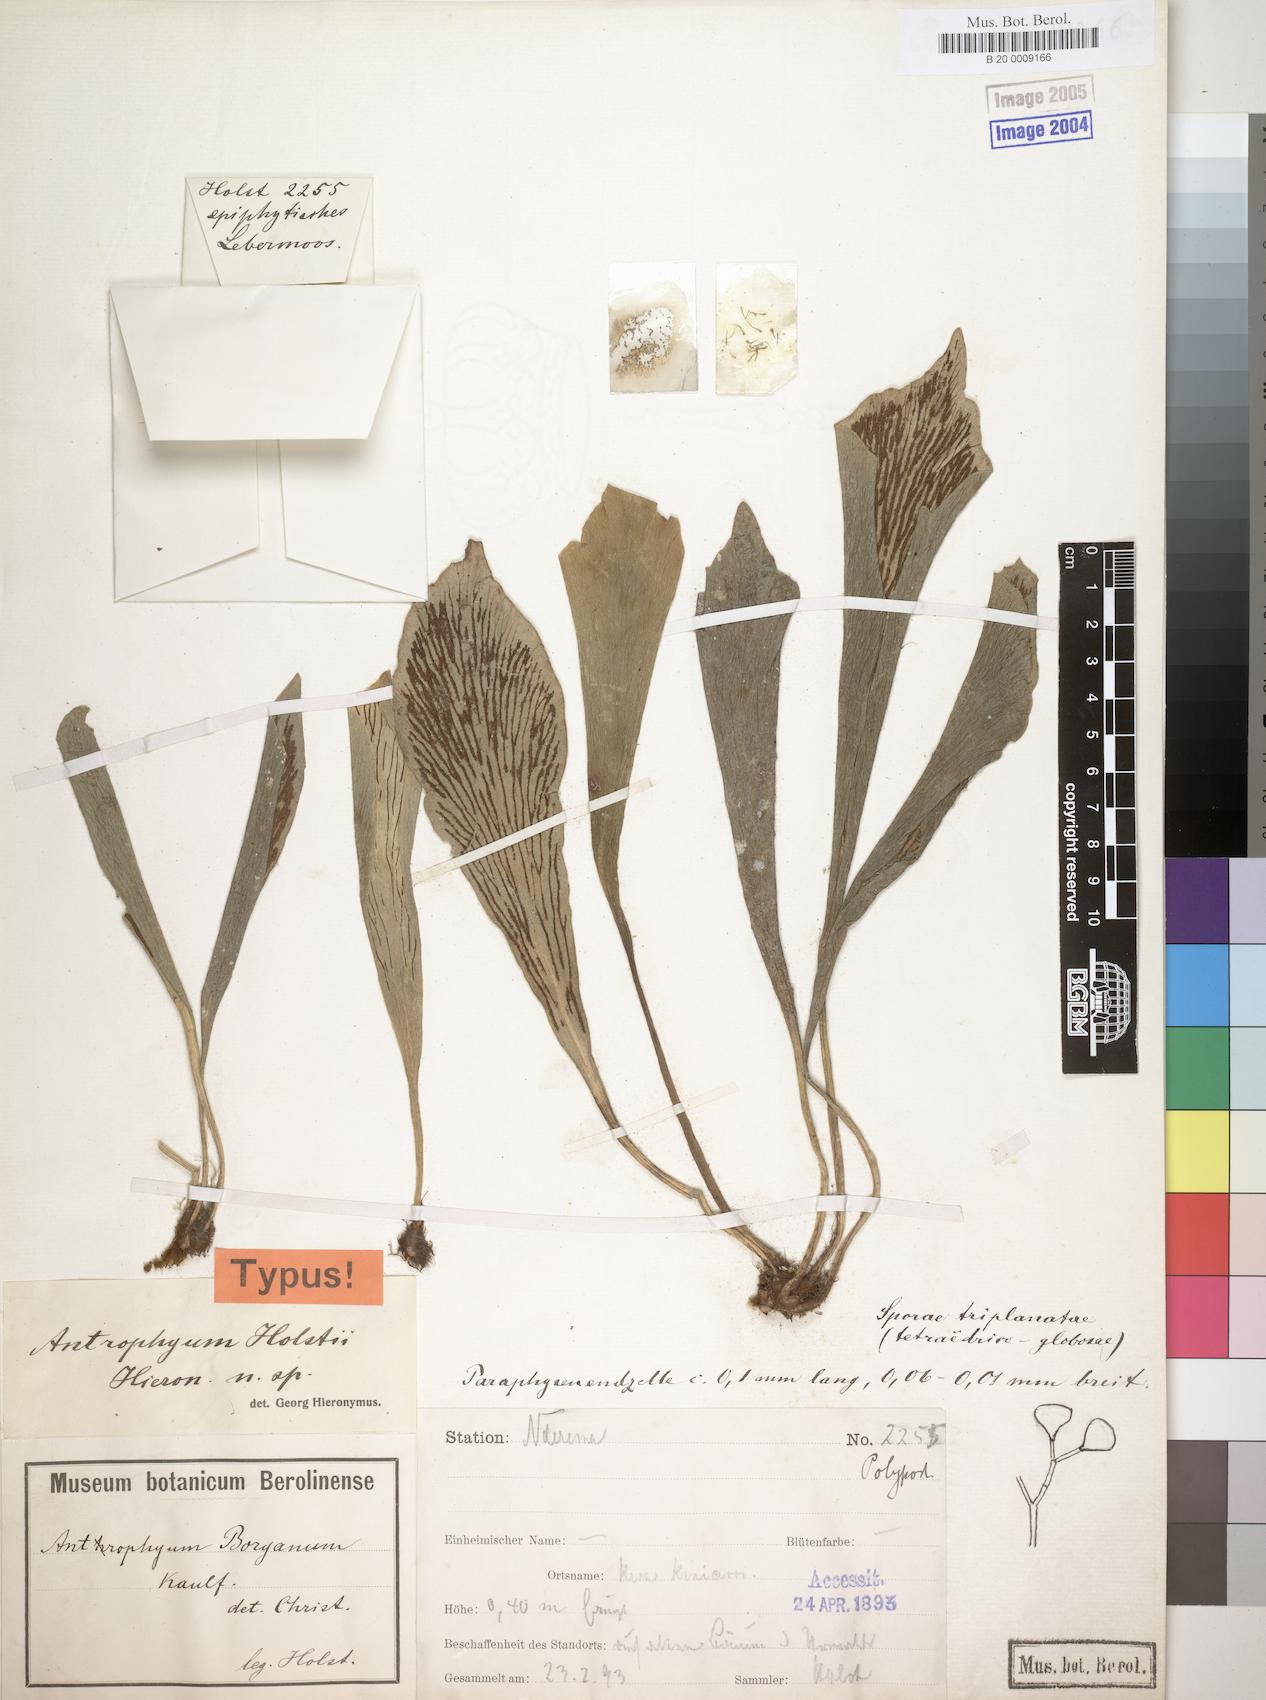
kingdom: Plantae
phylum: Tracheophyta
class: Polypodiopsida
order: Polypodiales
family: Pteridaceae
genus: Antrophyopsis
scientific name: Antrophyopsis boryana
